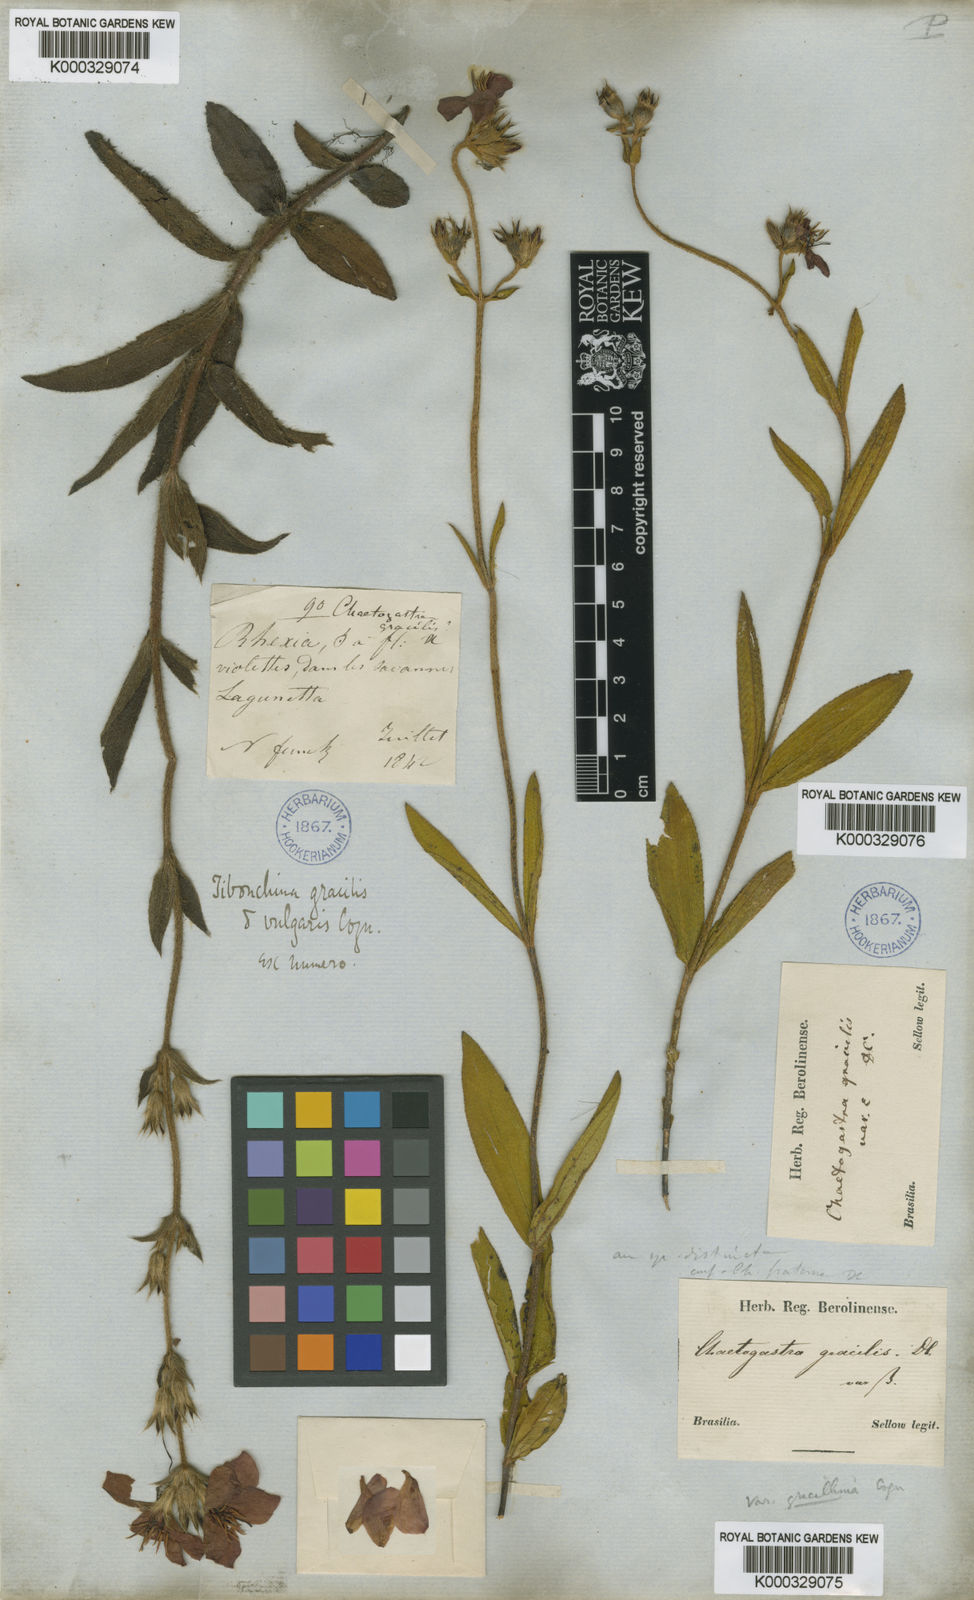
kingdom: Plantae
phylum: Tracheophyta
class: Magnoliopsida
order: Myrtales
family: Melastomataceae
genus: Chaetogastra
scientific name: Chaetogastra gracilis
